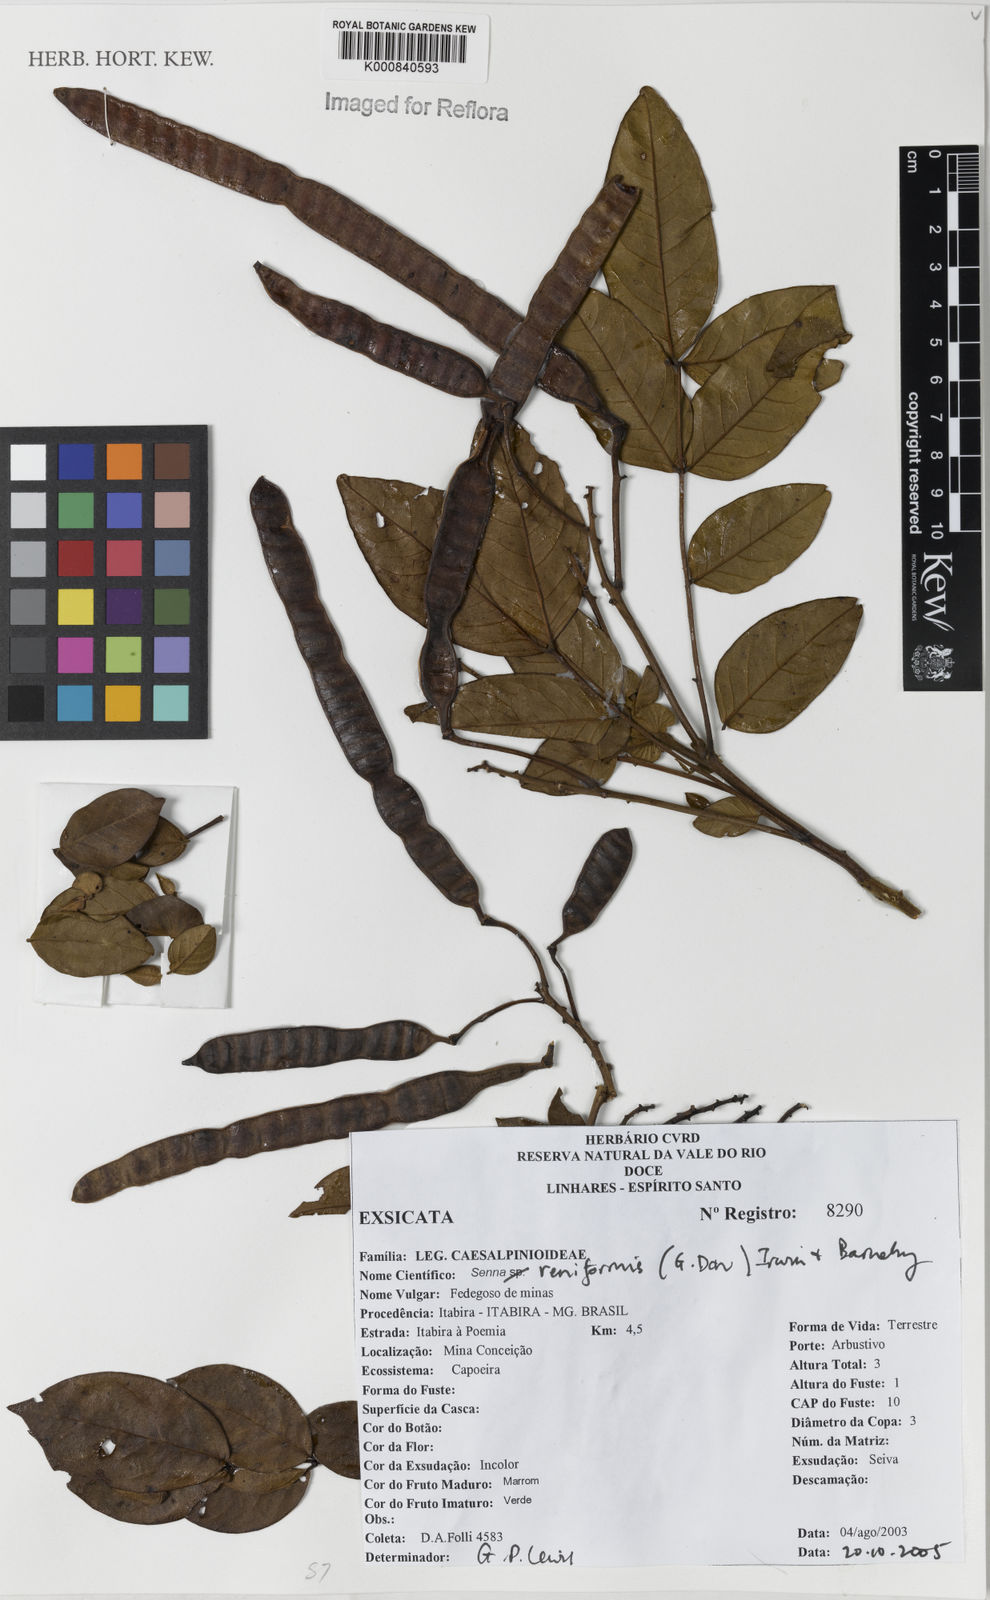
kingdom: Plantae
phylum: Tracheophyta
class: Magnoliopsida
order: Fabales
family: Fabaceae
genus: Senna
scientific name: Senna reniformis
